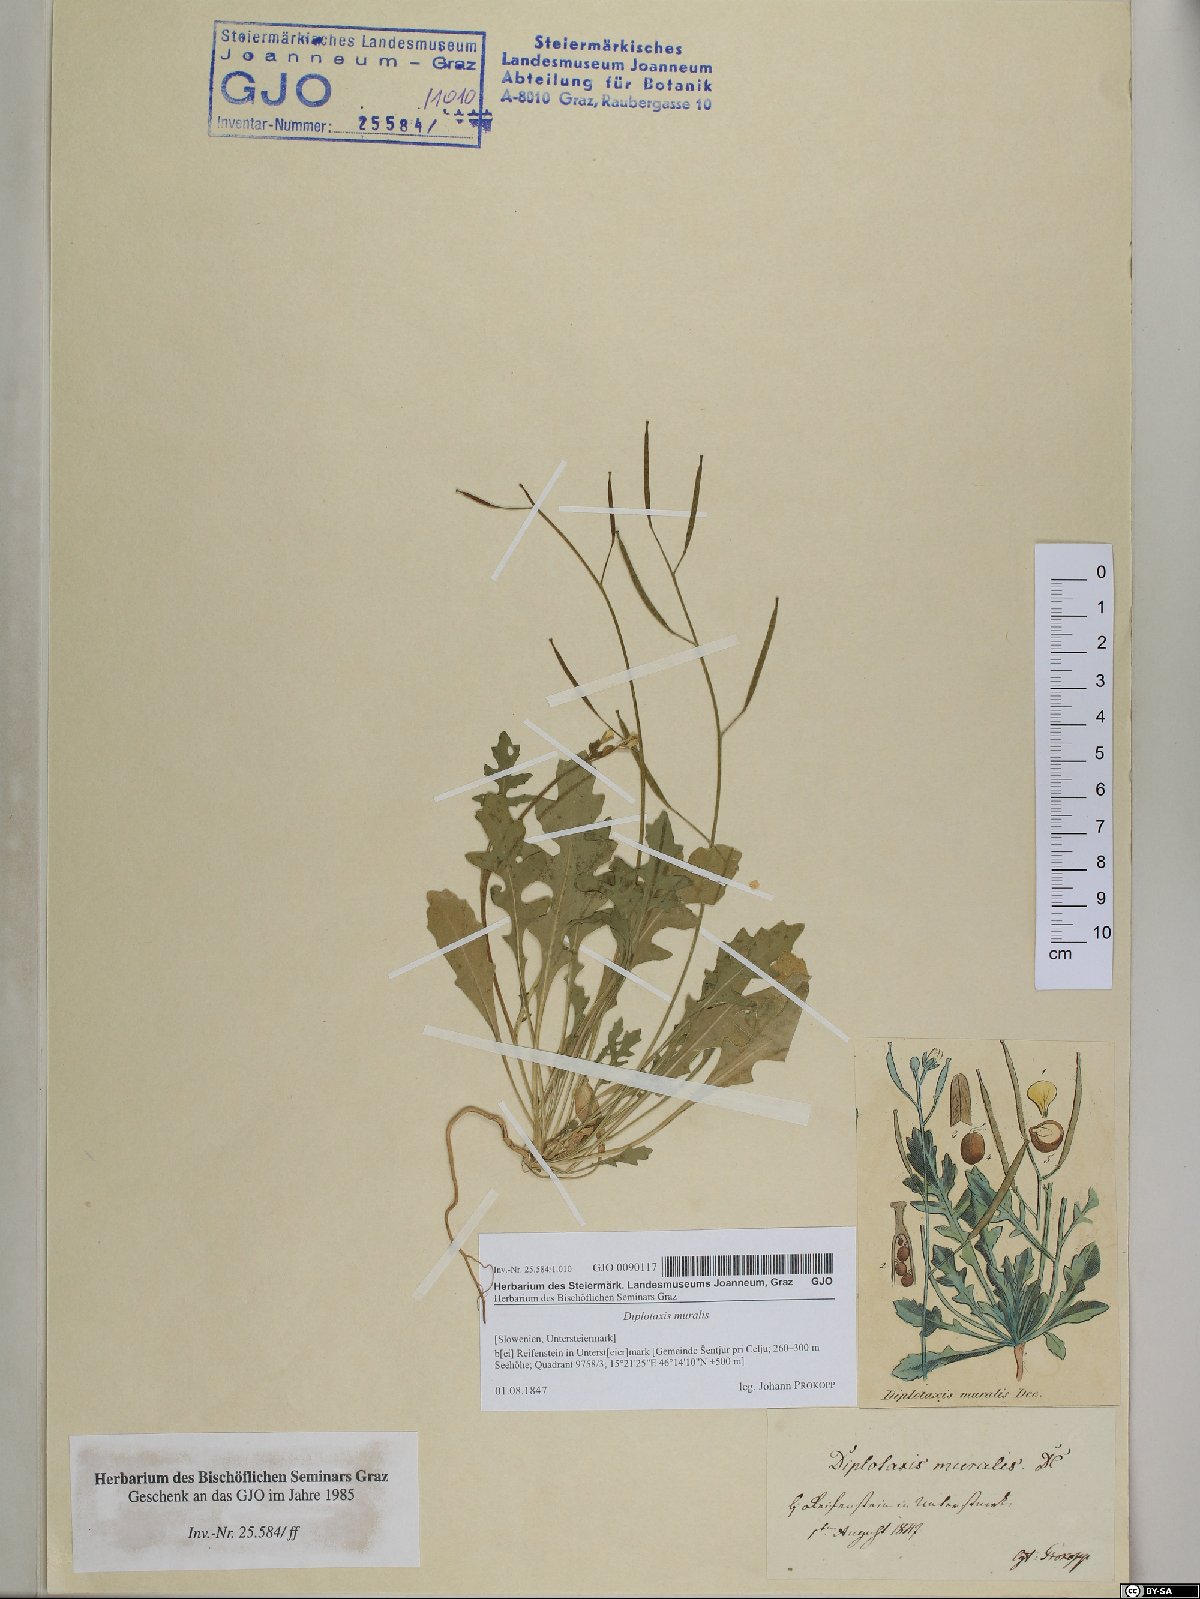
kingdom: Plantae
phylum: Tracheophyta
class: Magnoliopsida
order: Brassicales
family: Brassicaceae
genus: Diplotaxis
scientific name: Diplotaxis muralis
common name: Annual wall-rocket
